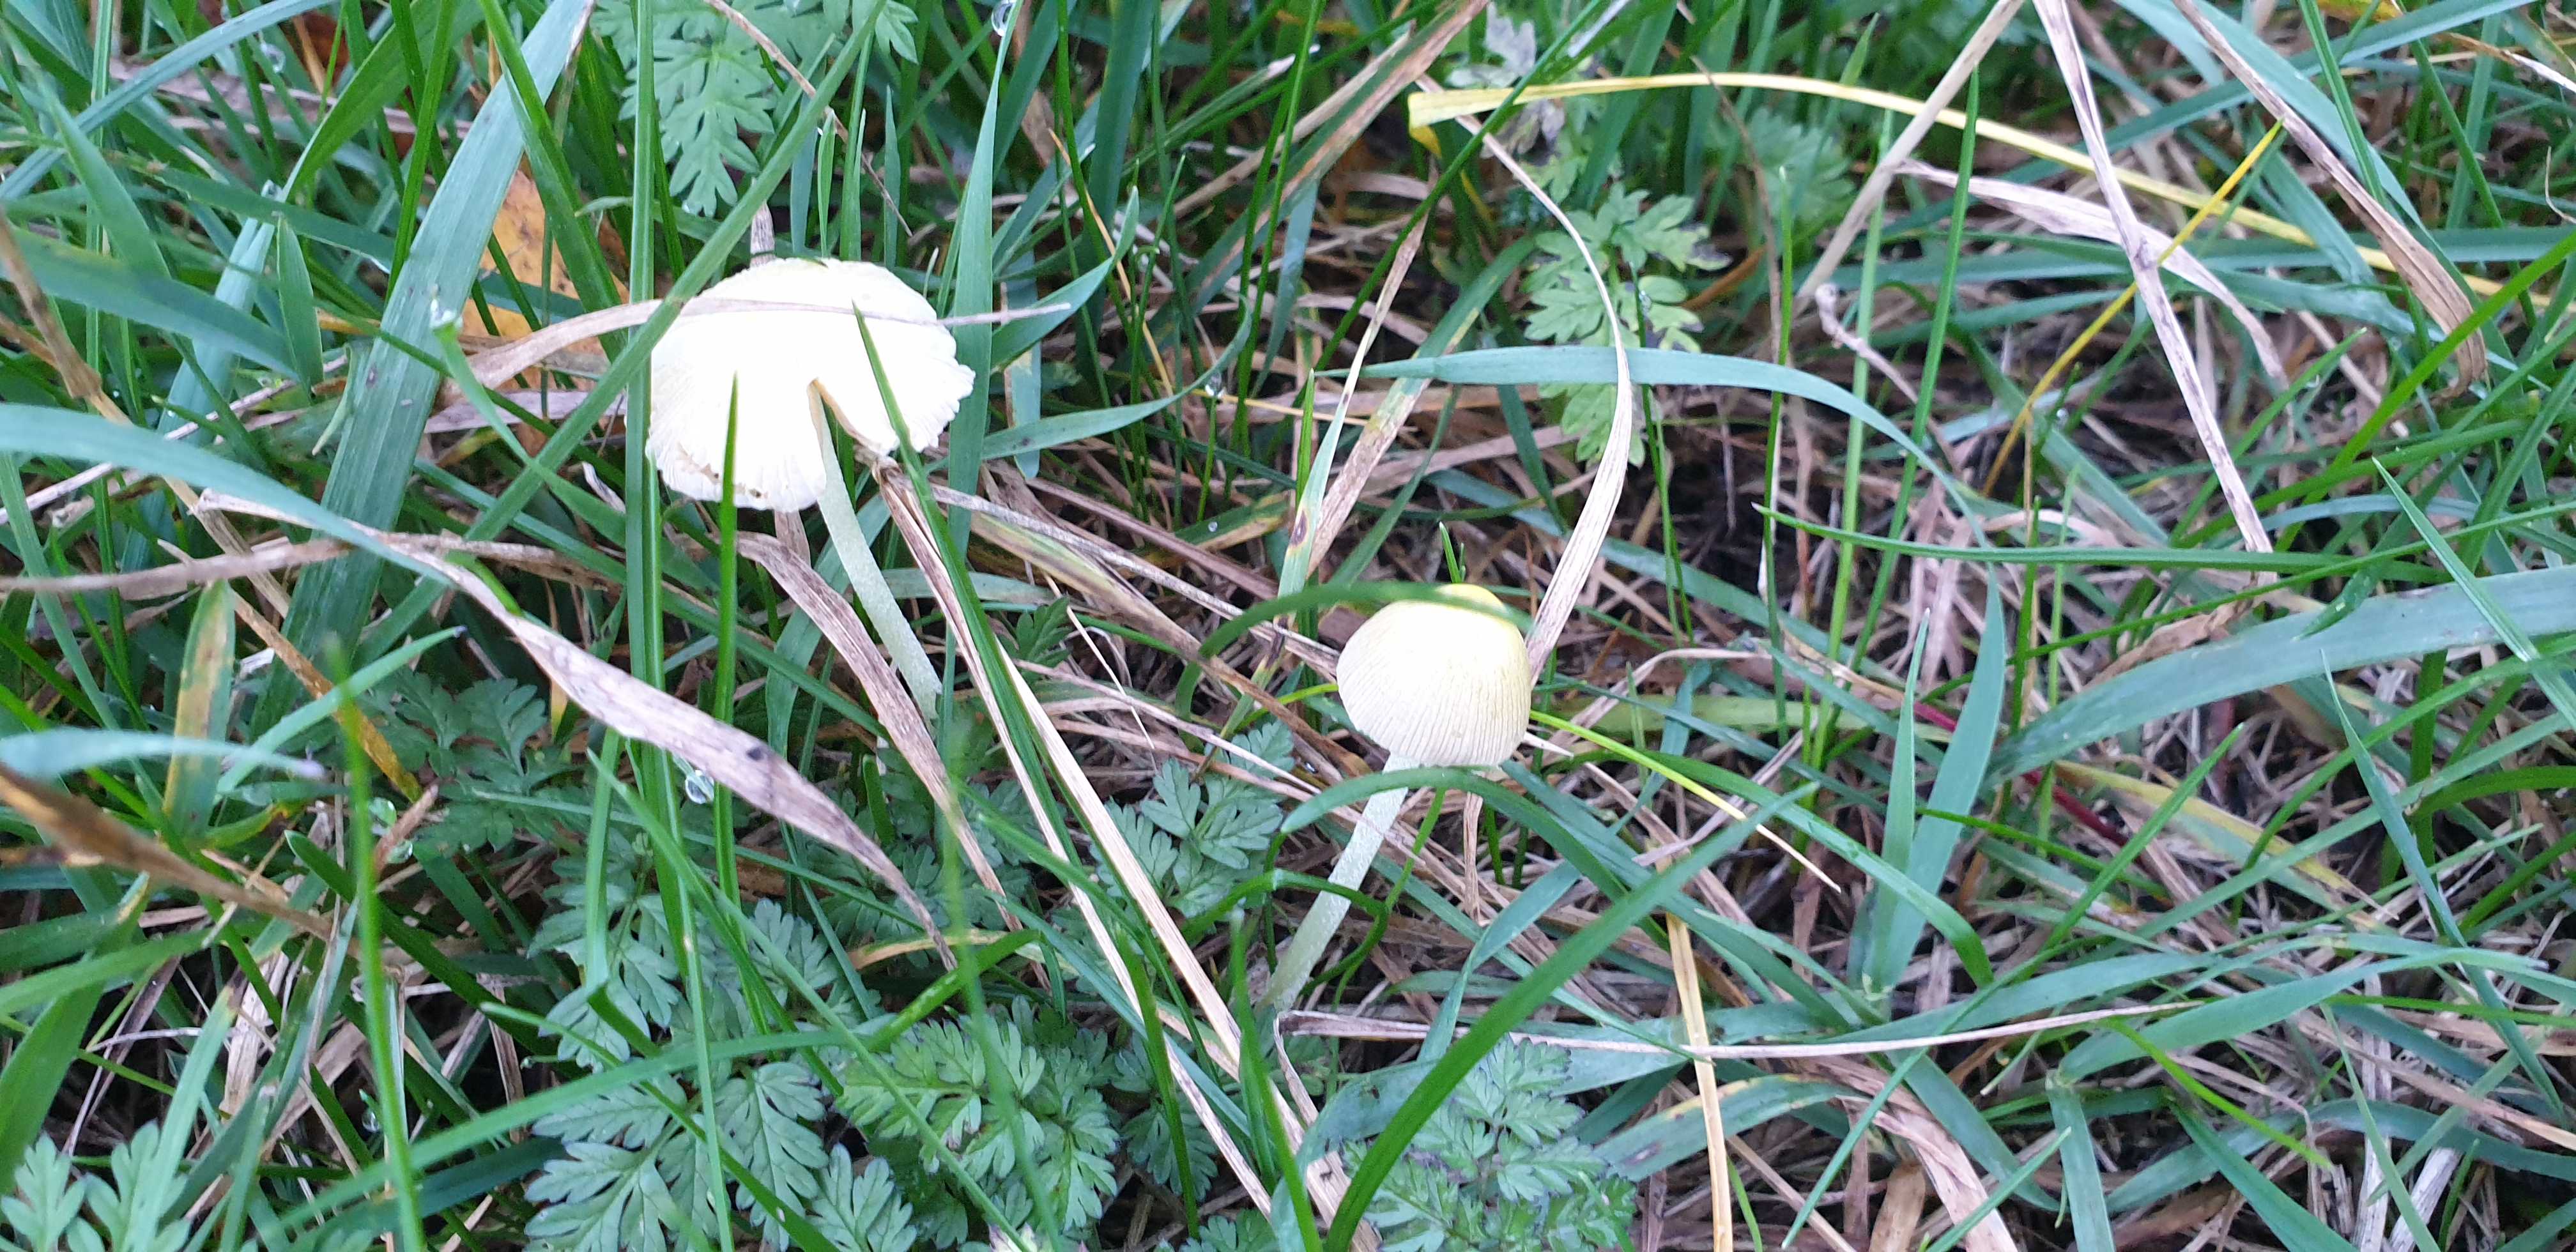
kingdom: Fungi
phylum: Basidiomycota
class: Agaricomycetes
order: Agaricales
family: Bolbitiaceae
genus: Bolbitius
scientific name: Bolbitius titubans
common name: almindelig gulhat
